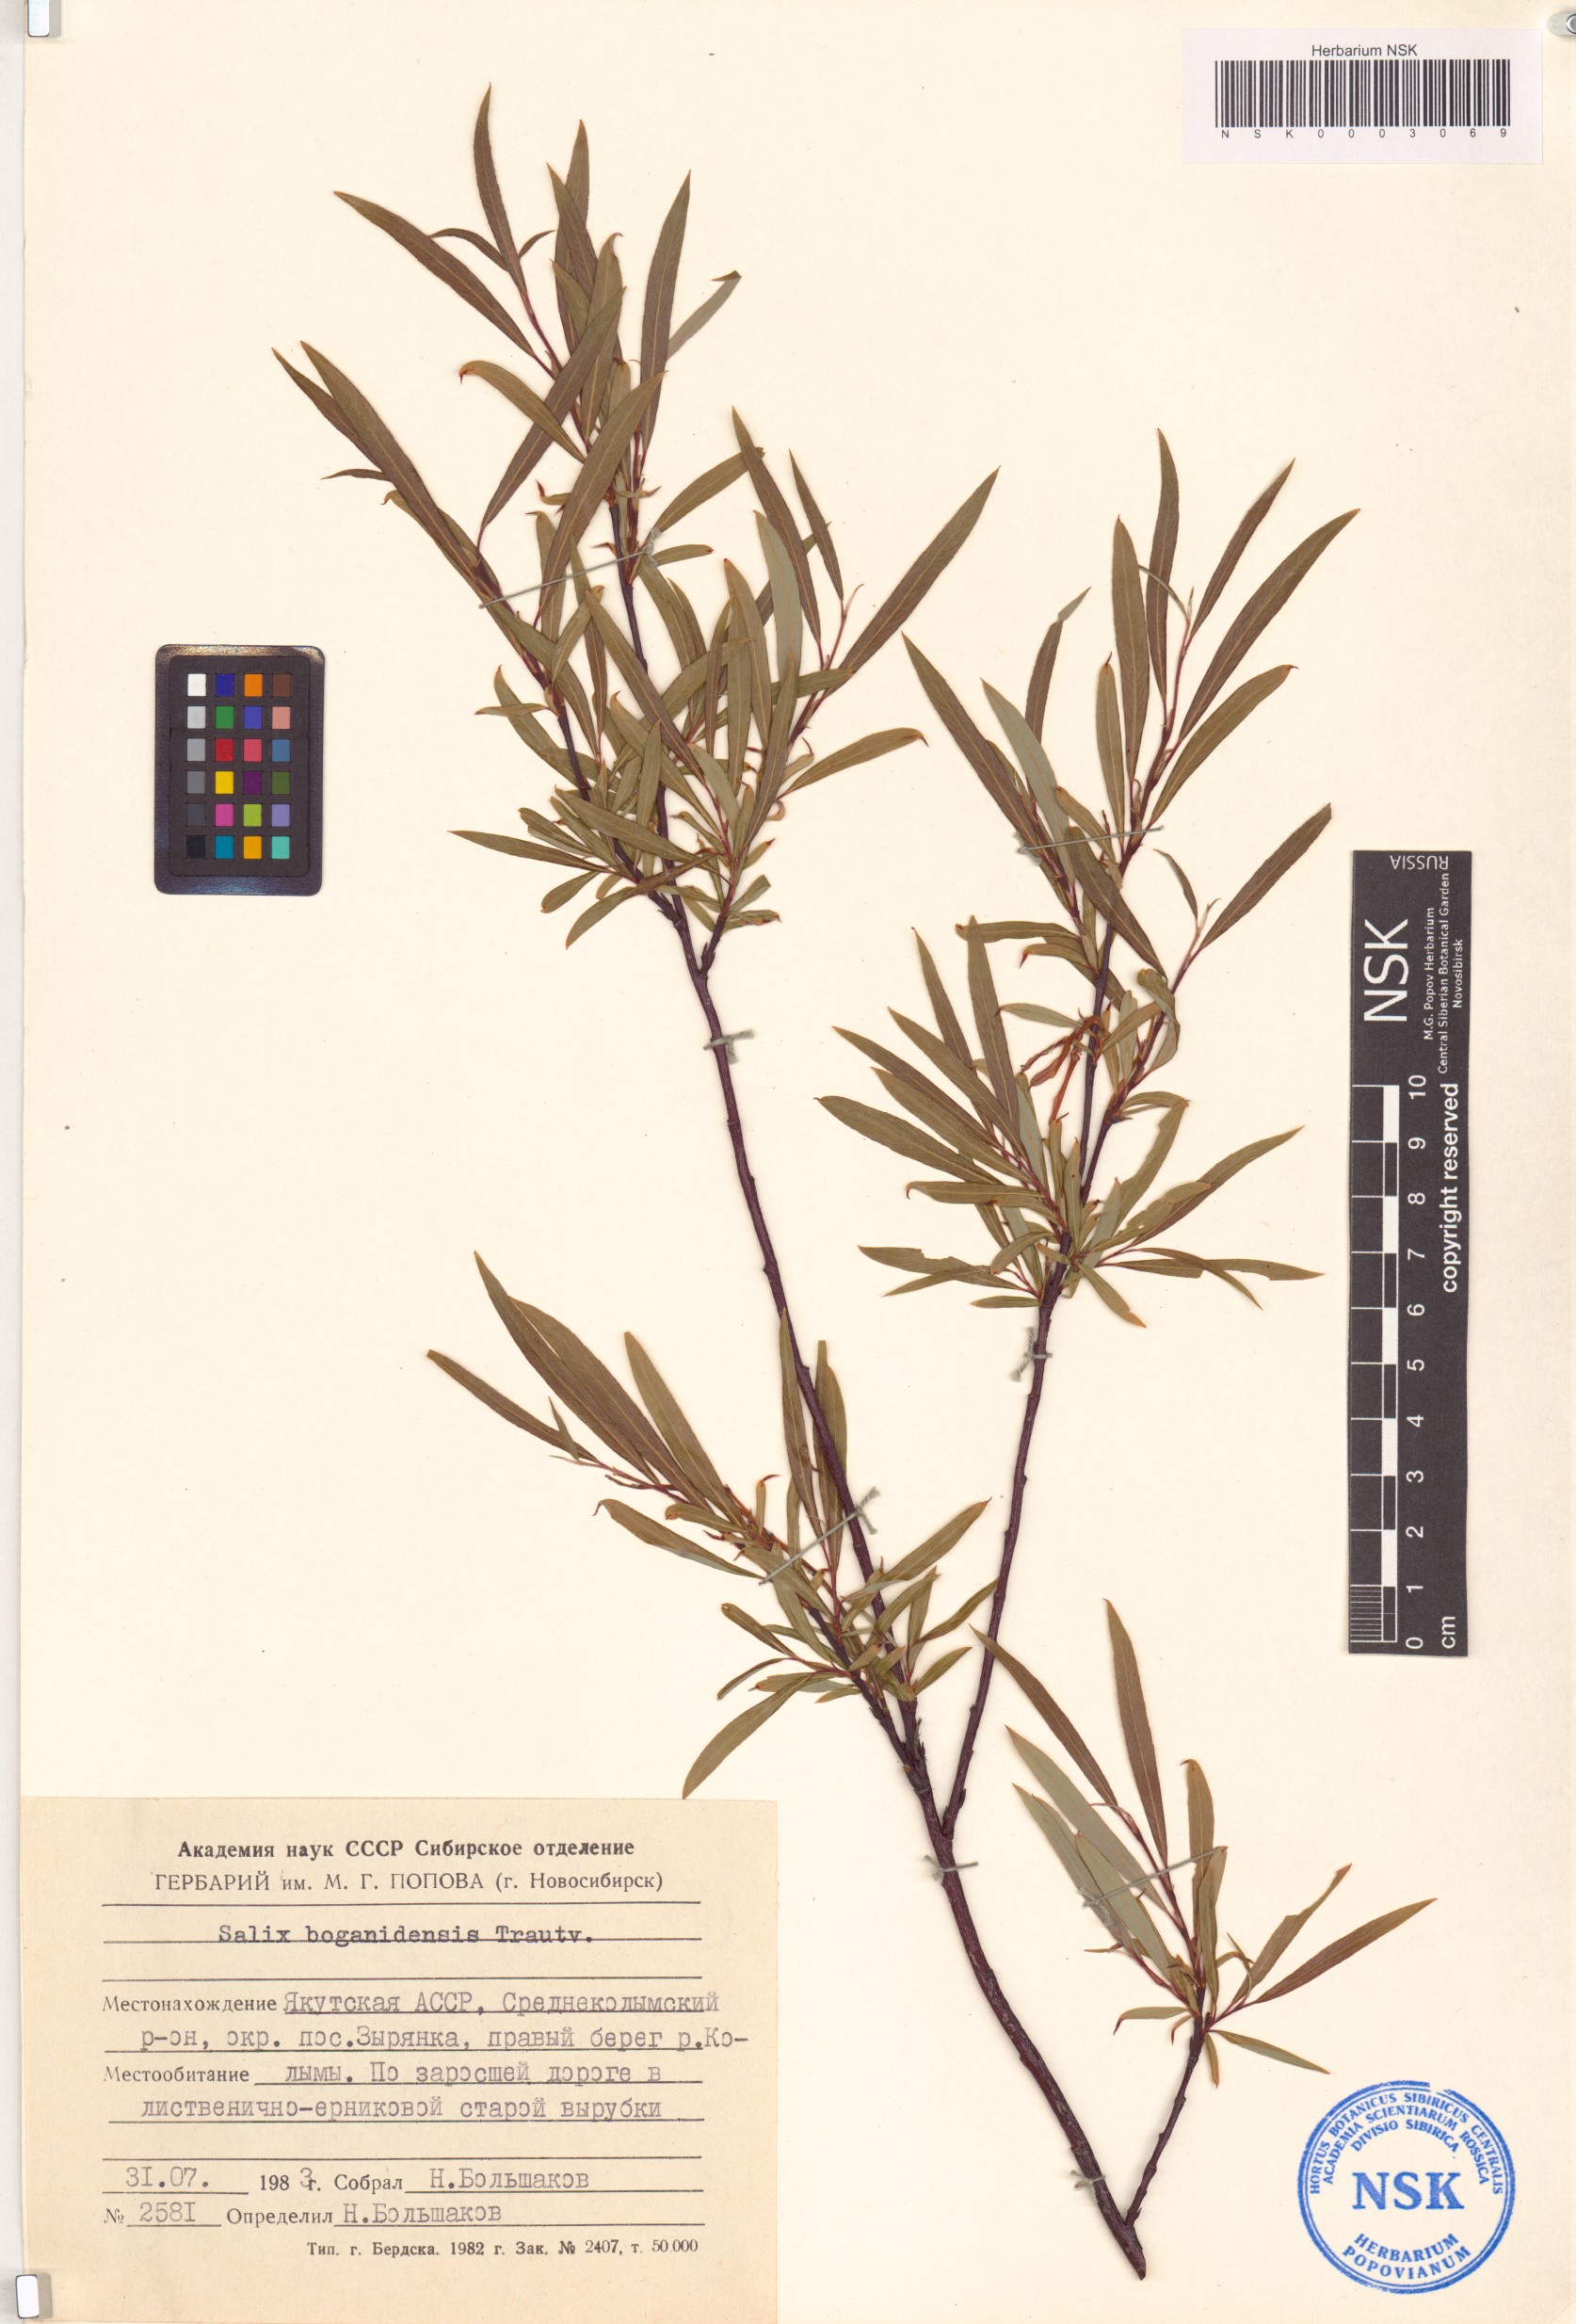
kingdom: Plantae
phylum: Tracheophyta
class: Magnoliopsida
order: Malpighiales
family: Salicaceae
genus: Salix
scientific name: Salix boganidensis
